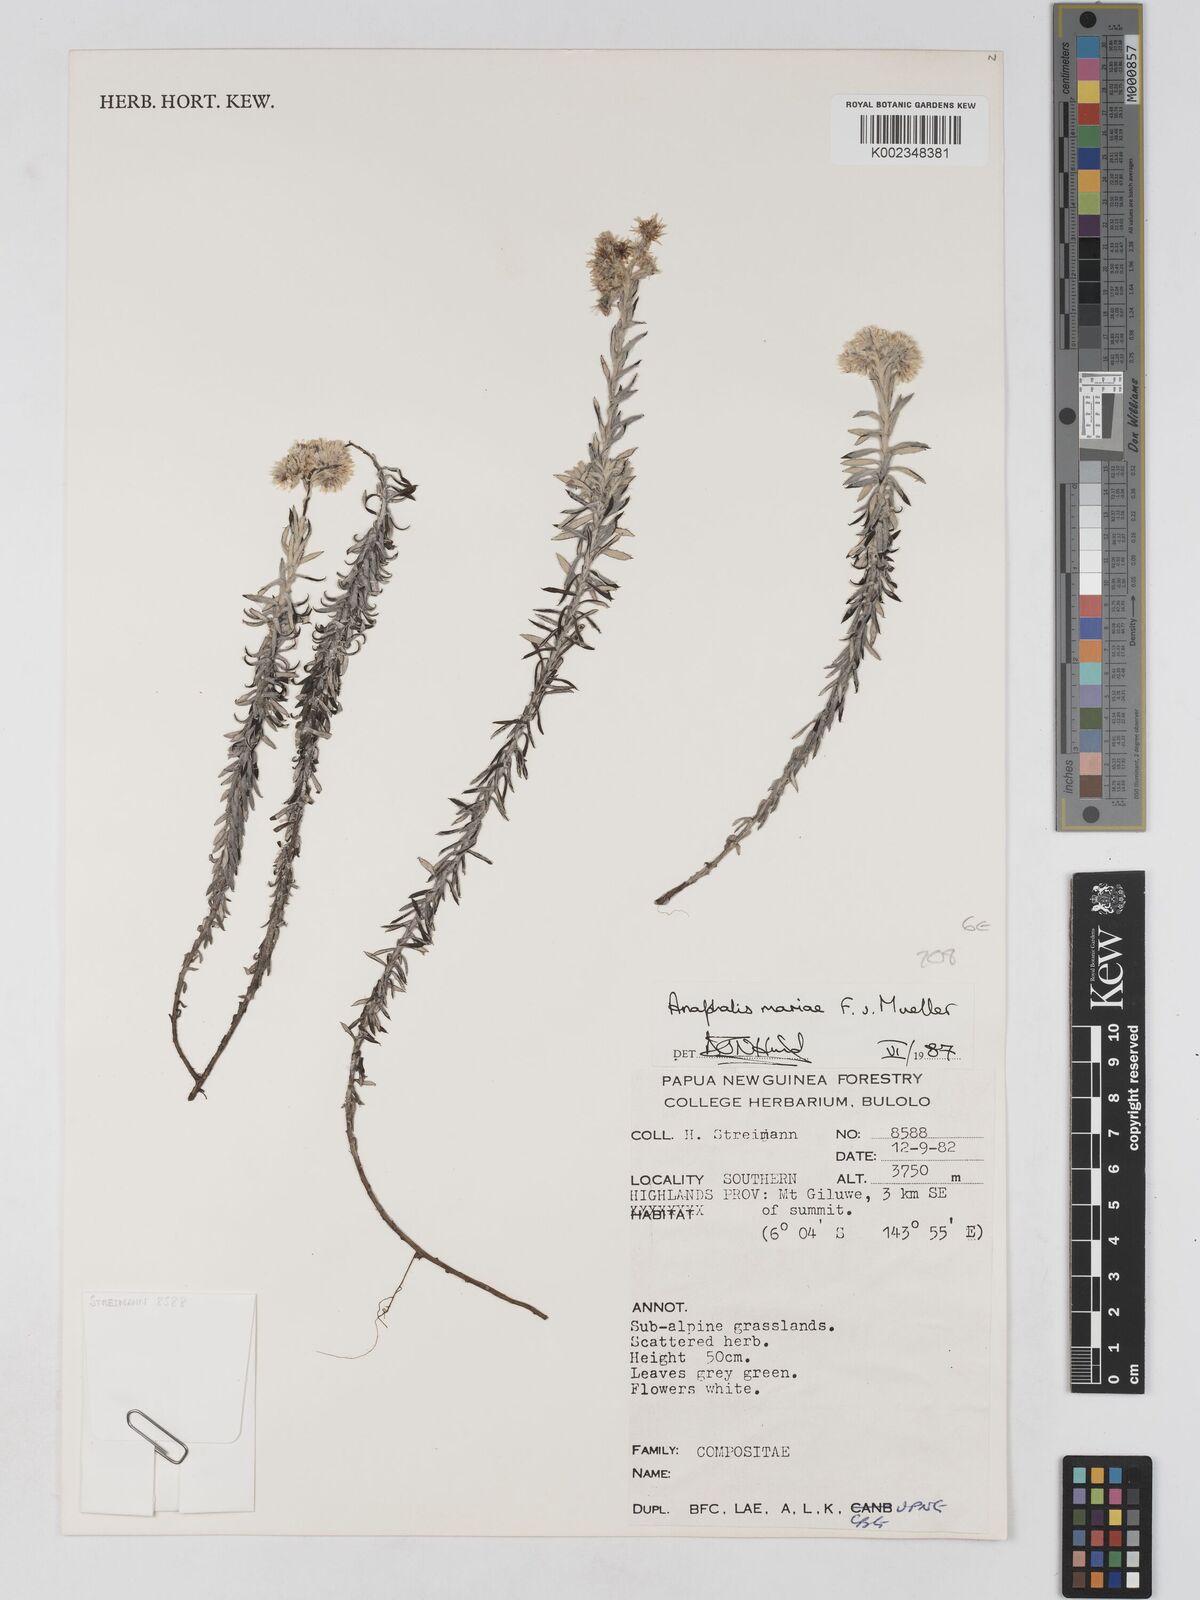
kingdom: Plantae
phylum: Tracheophyta
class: Magnoliopsida
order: Asterales
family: Asteraceae
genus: Anaphalioides
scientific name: Anaphalioides mariae
